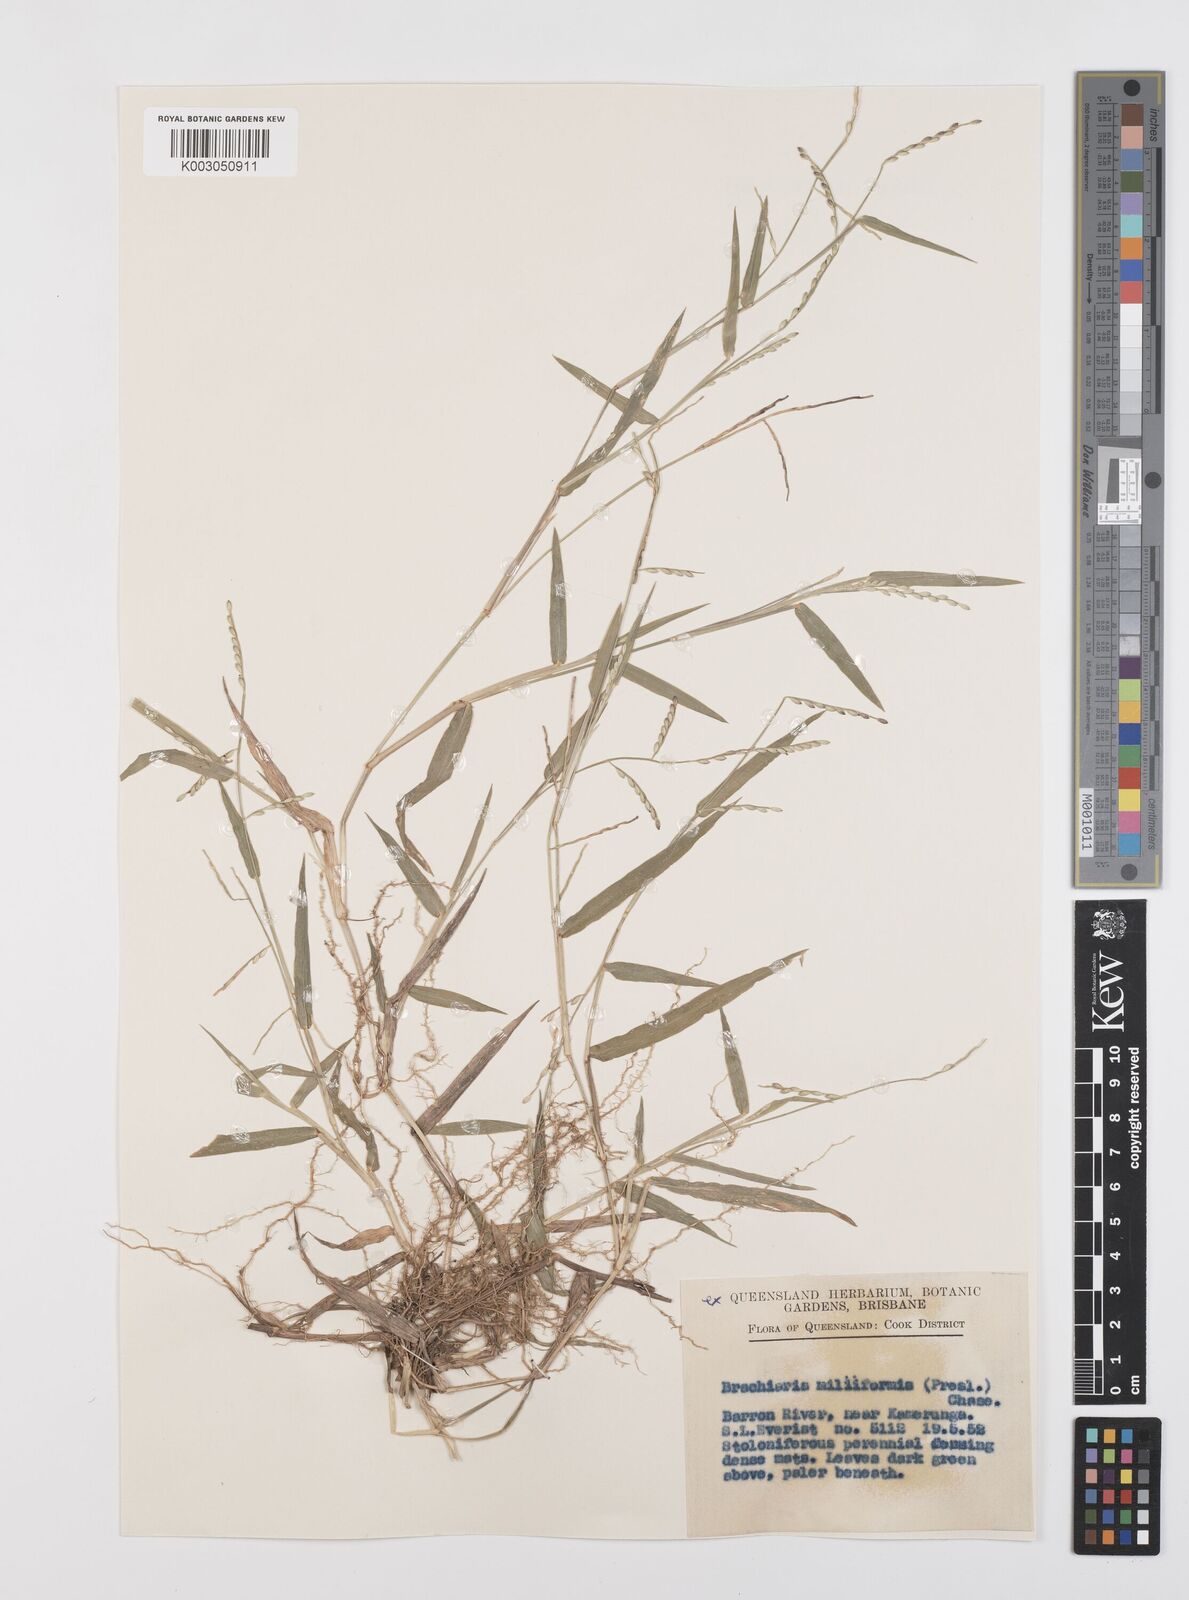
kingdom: Plantae
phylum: Tracheophyta
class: Liliopsida
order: Poales
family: Poaceae
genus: Urochloa
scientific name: Urochloa subquadripara
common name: Armgrass millet
